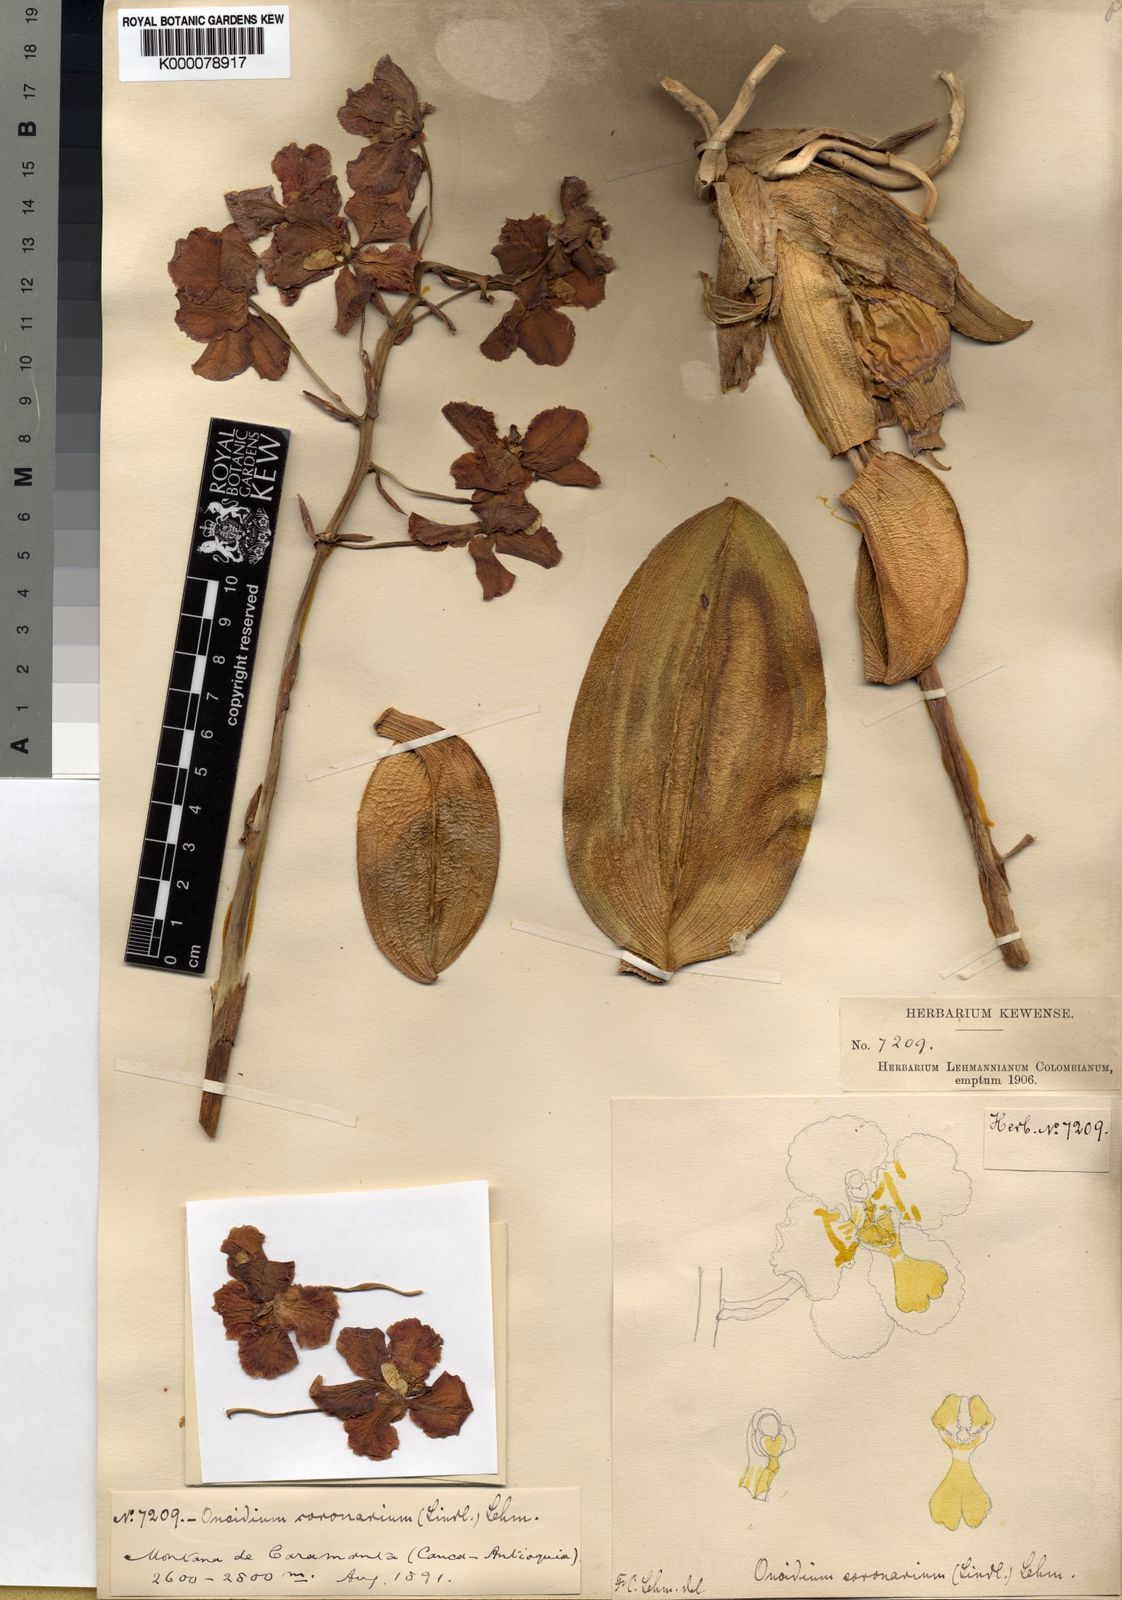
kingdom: Plantae
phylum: Tracheophyta
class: Liliopsida
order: Asparagales
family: Orchidaceae
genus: Otoglossum
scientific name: Otoglossum
